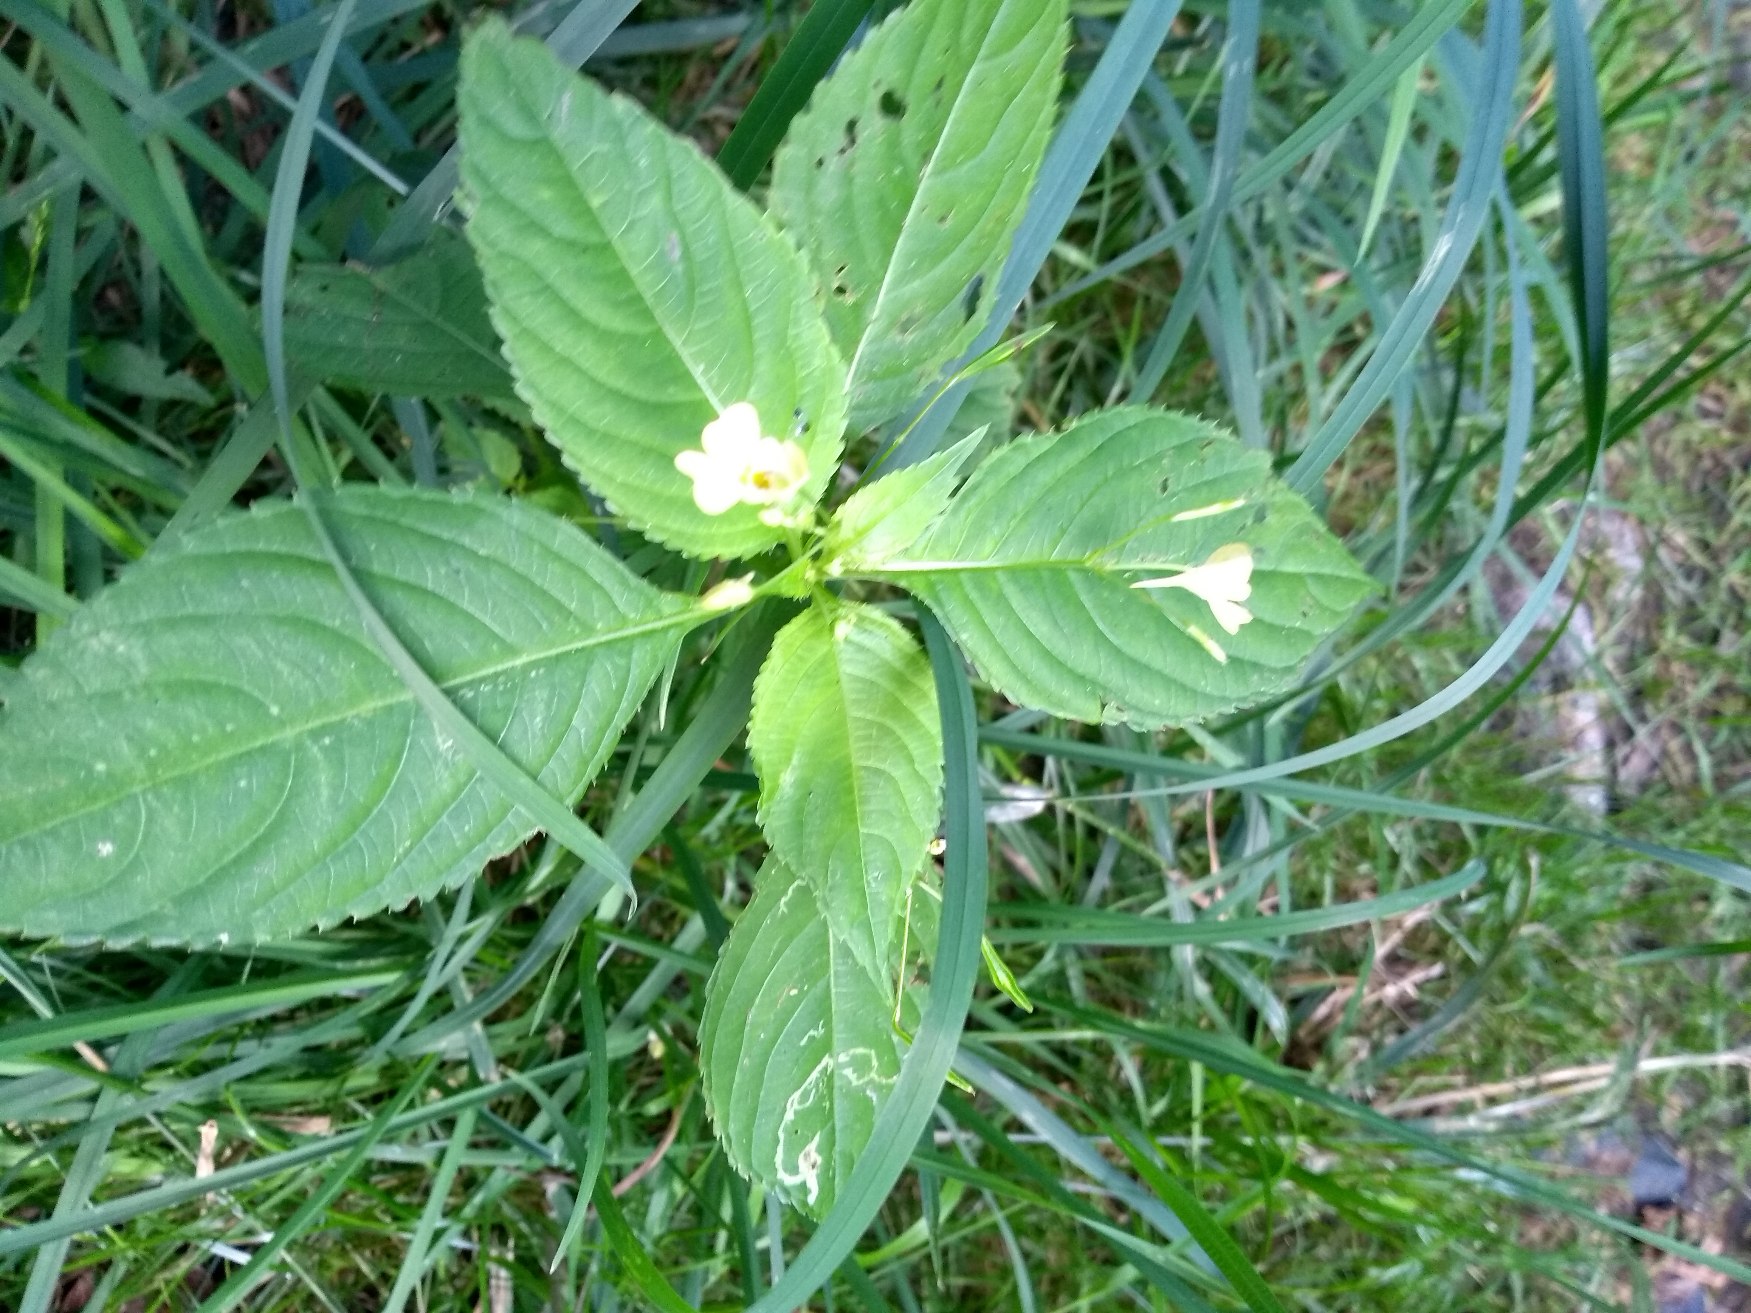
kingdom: Plantae
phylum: Tracheophyta
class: Magnoliopsida
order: Ericales
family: Balsaminaceae
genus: Impatiens
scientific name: Impatiens parviflora
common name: Småblomstret balsamin
